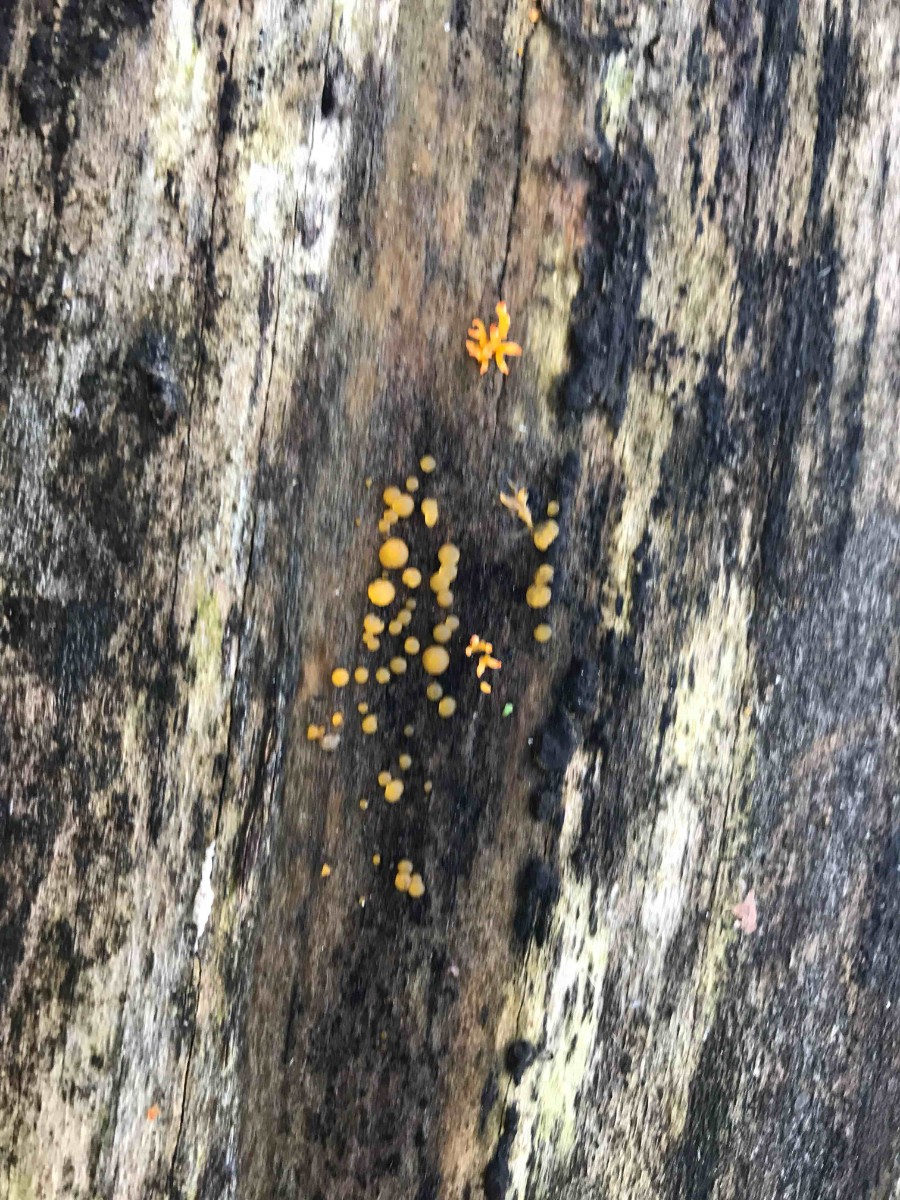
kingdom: Fungi
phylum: Ascomycota
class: Leotiomycetes
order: Helotiales
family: Pezizellaceae
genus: Calycina
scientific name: Calycina citrina
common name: almindelig gulskive
